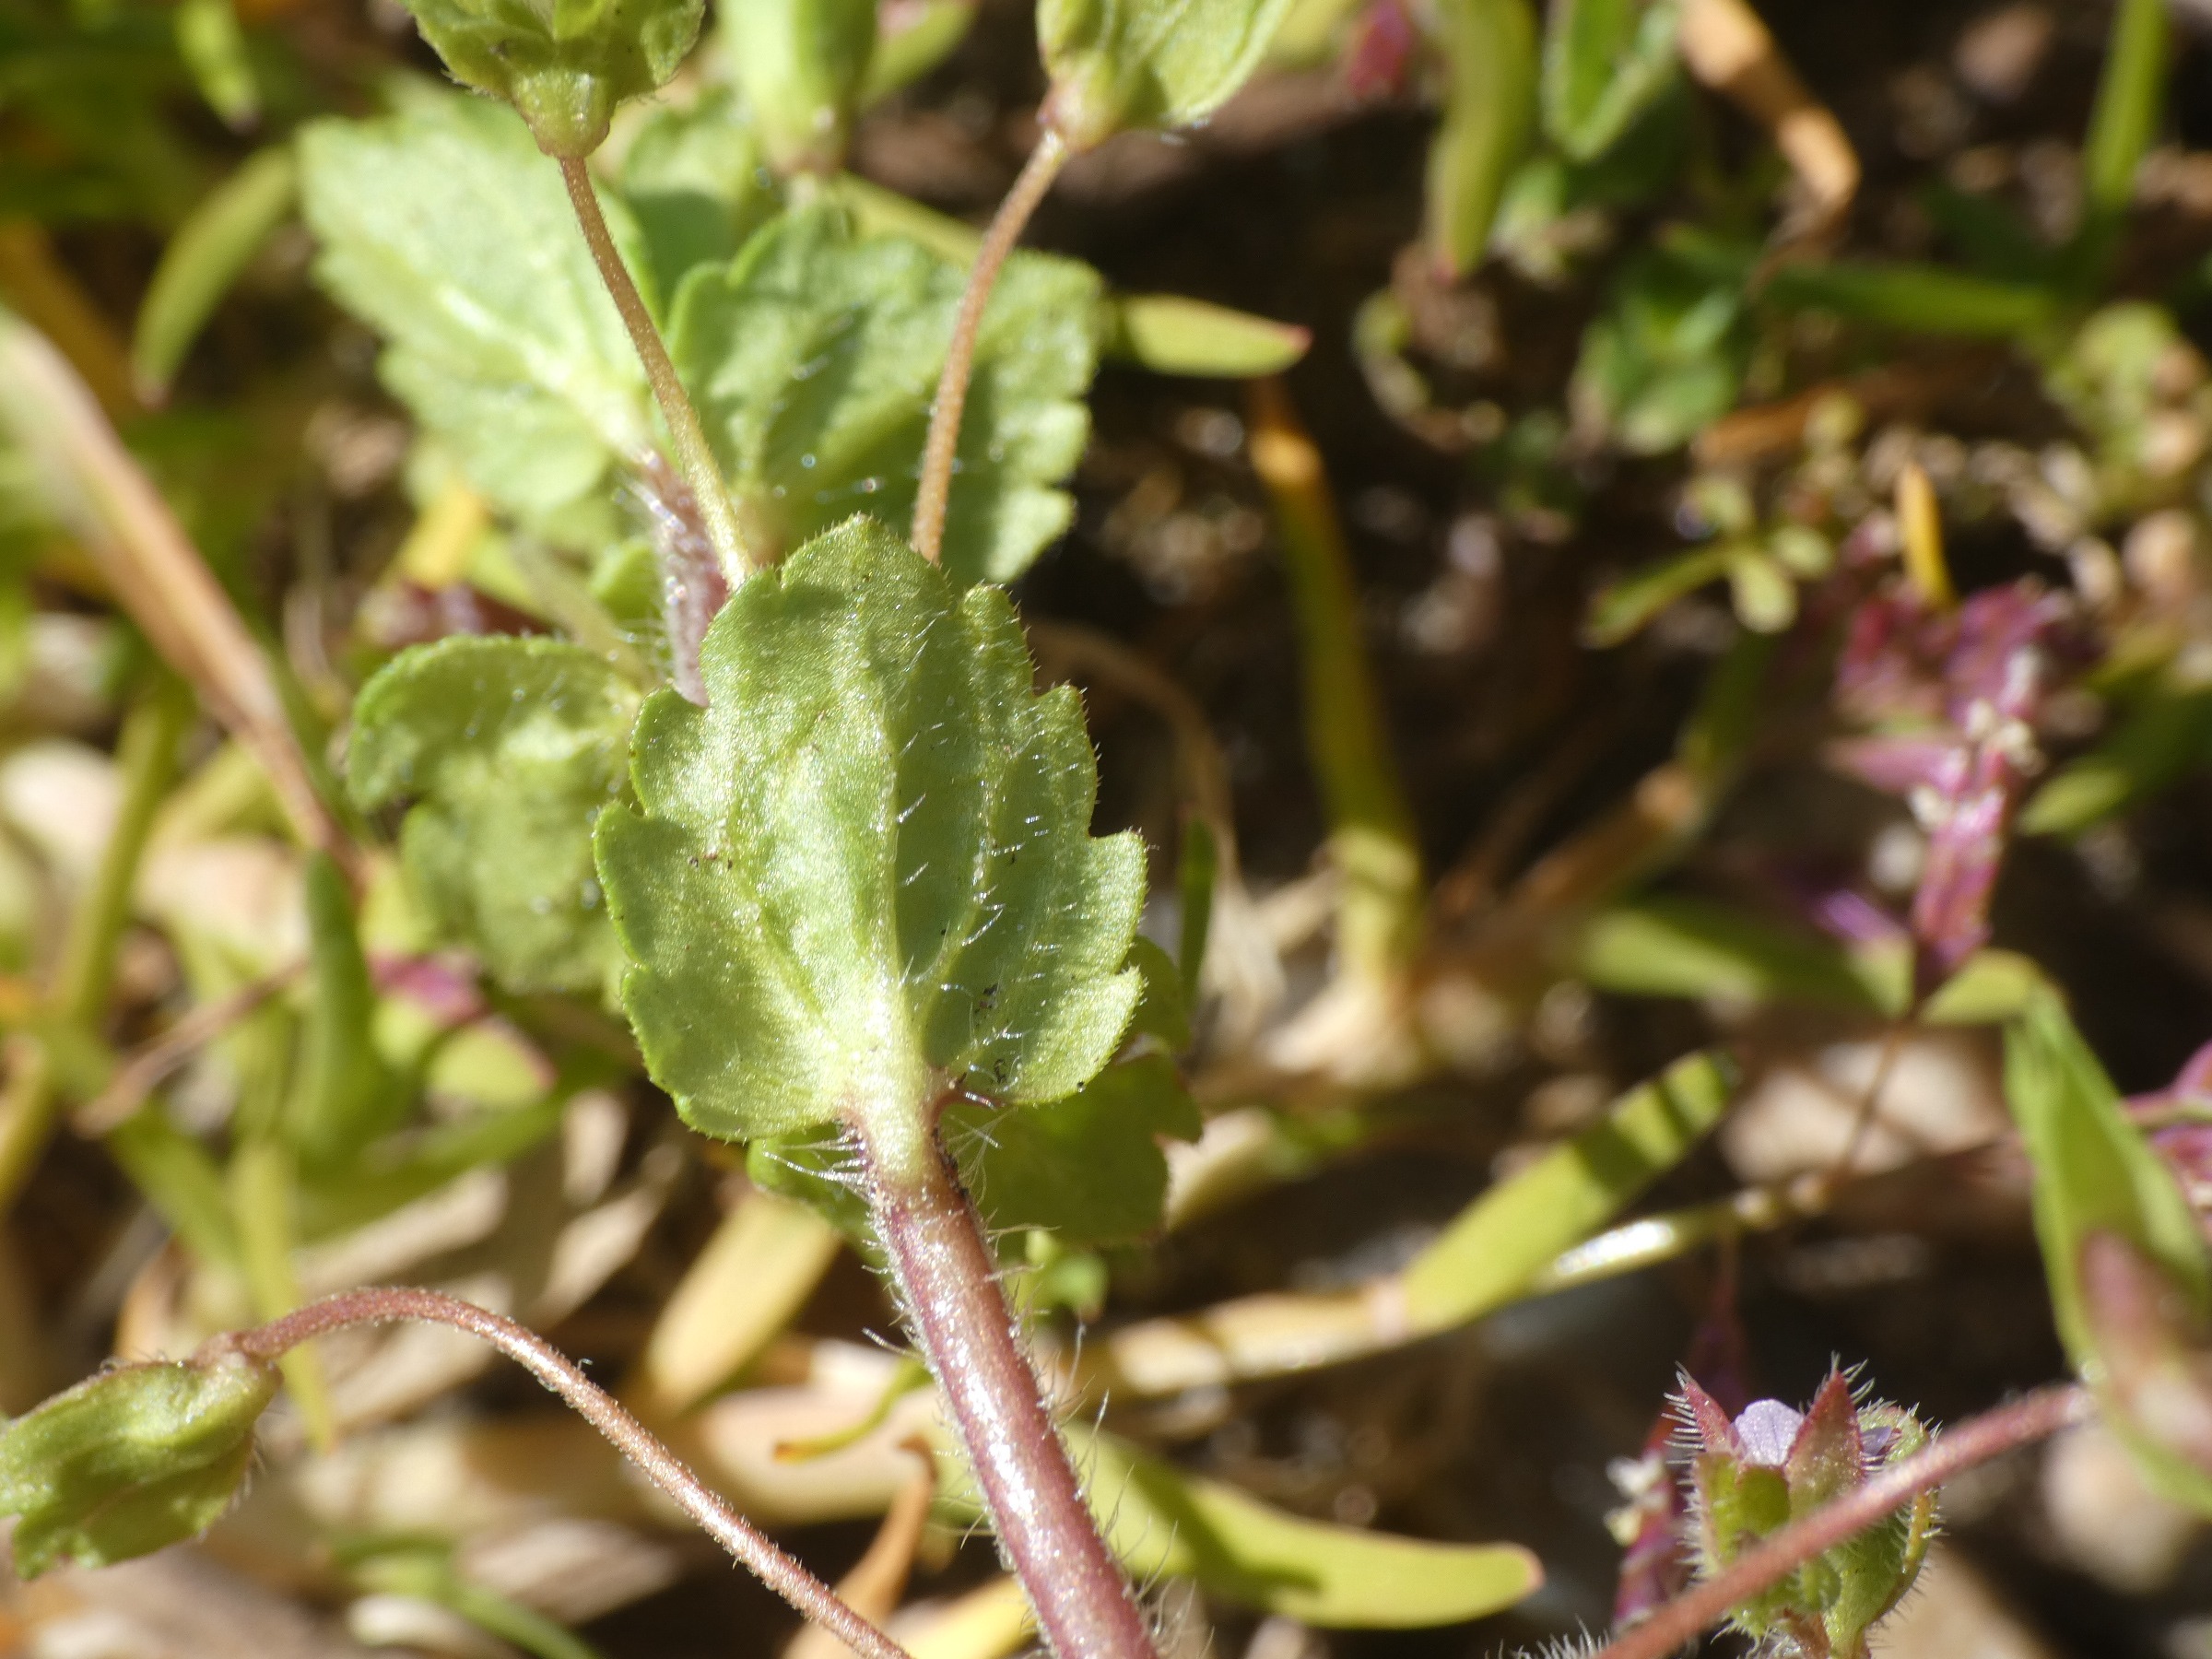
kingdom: Plantae
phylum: Tracheophyta
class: Magnoliopsida
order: Lamiales
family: Plantaginaceae
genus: Veronica
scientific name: Veronica persica
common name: Storkronet ærenpris
